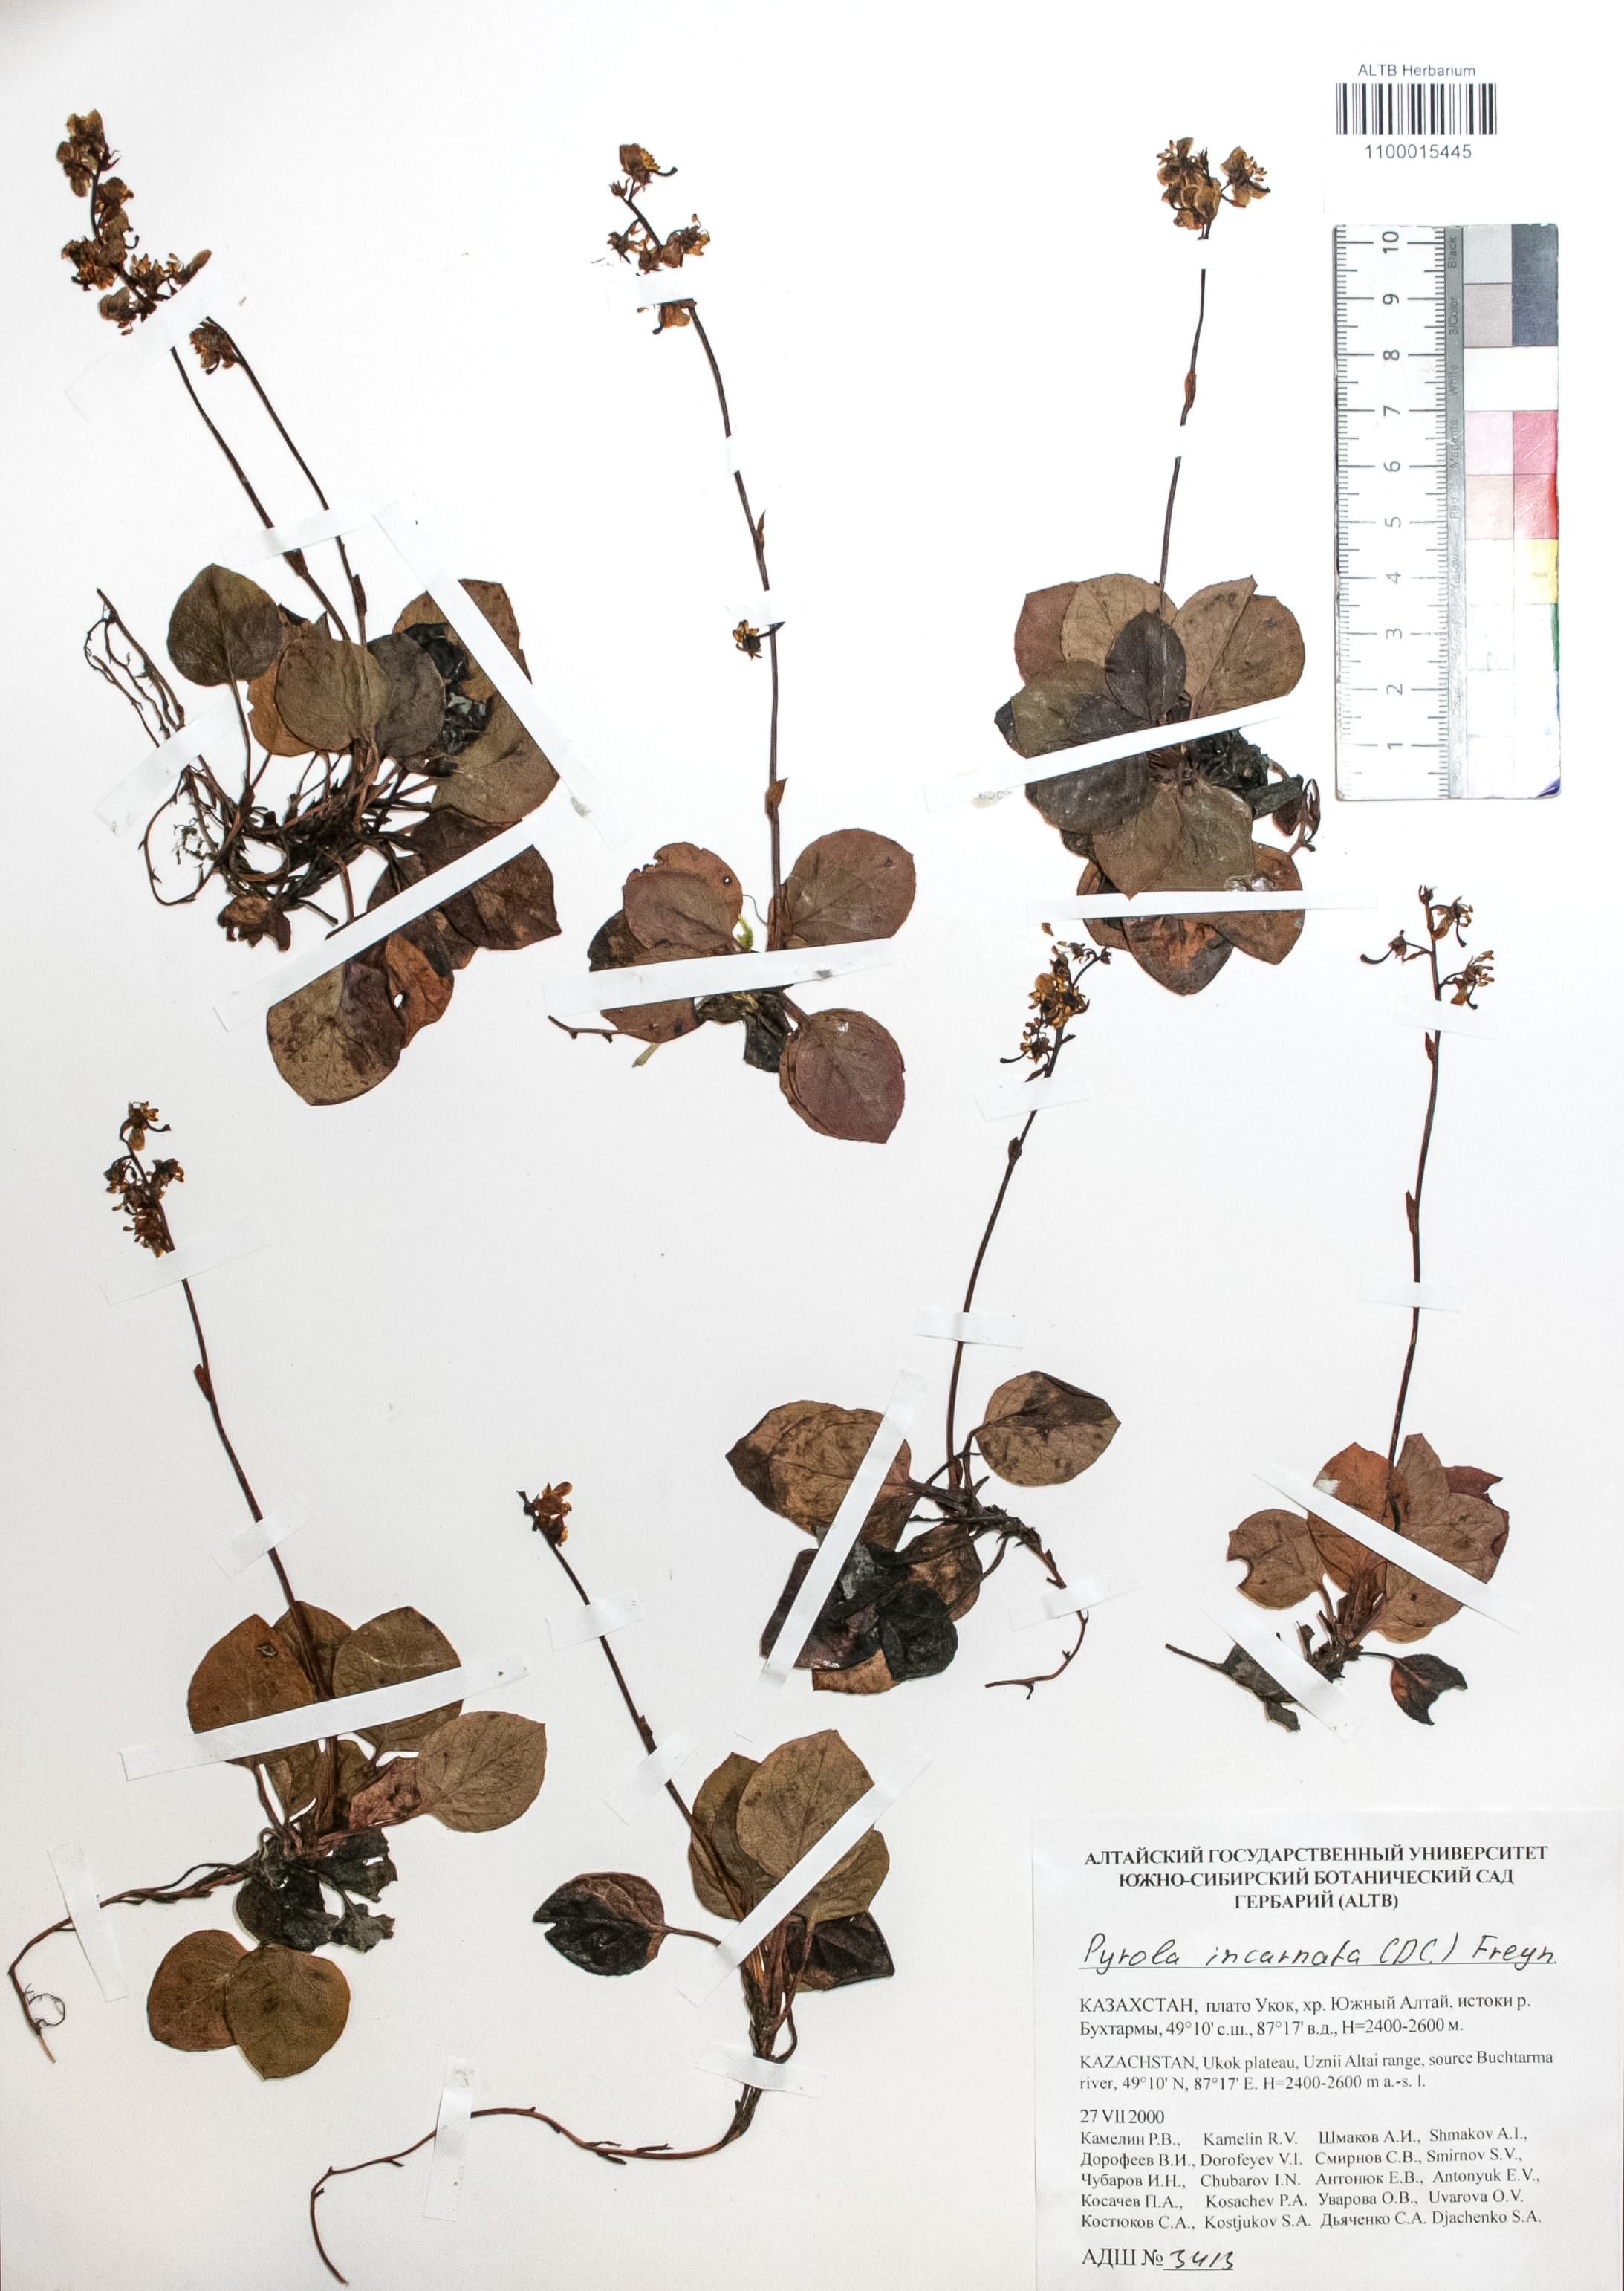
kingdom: Plantae
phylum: Tracheophyta
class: Magnoliopsida
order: Ericales
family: Ericaceae
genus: Pyrola
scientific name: Pyrola asarifolia
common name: Bog wintergreen
